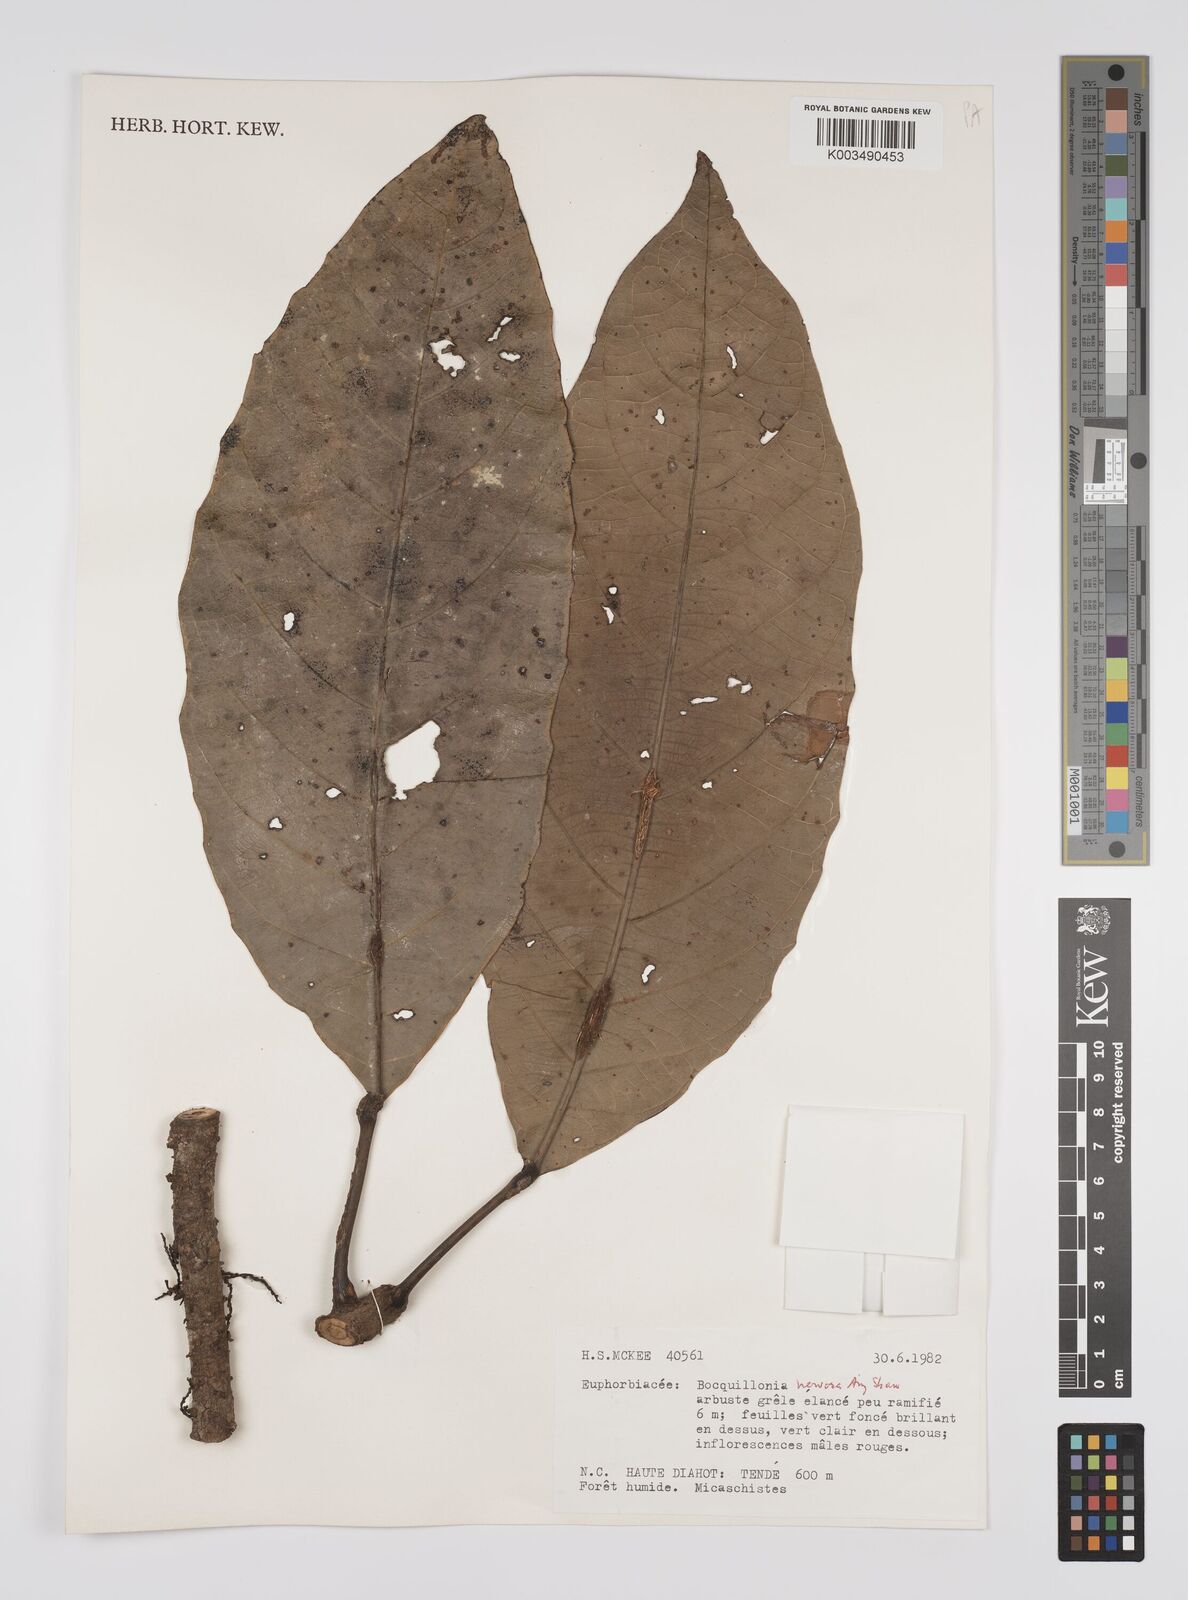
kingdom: Plantae
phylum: Tracheophyta
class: Magnoliopsida
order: Malpighiales
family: Euphorbiaceae
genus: Bocquillonia
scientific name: Bocquillonia nervosa
